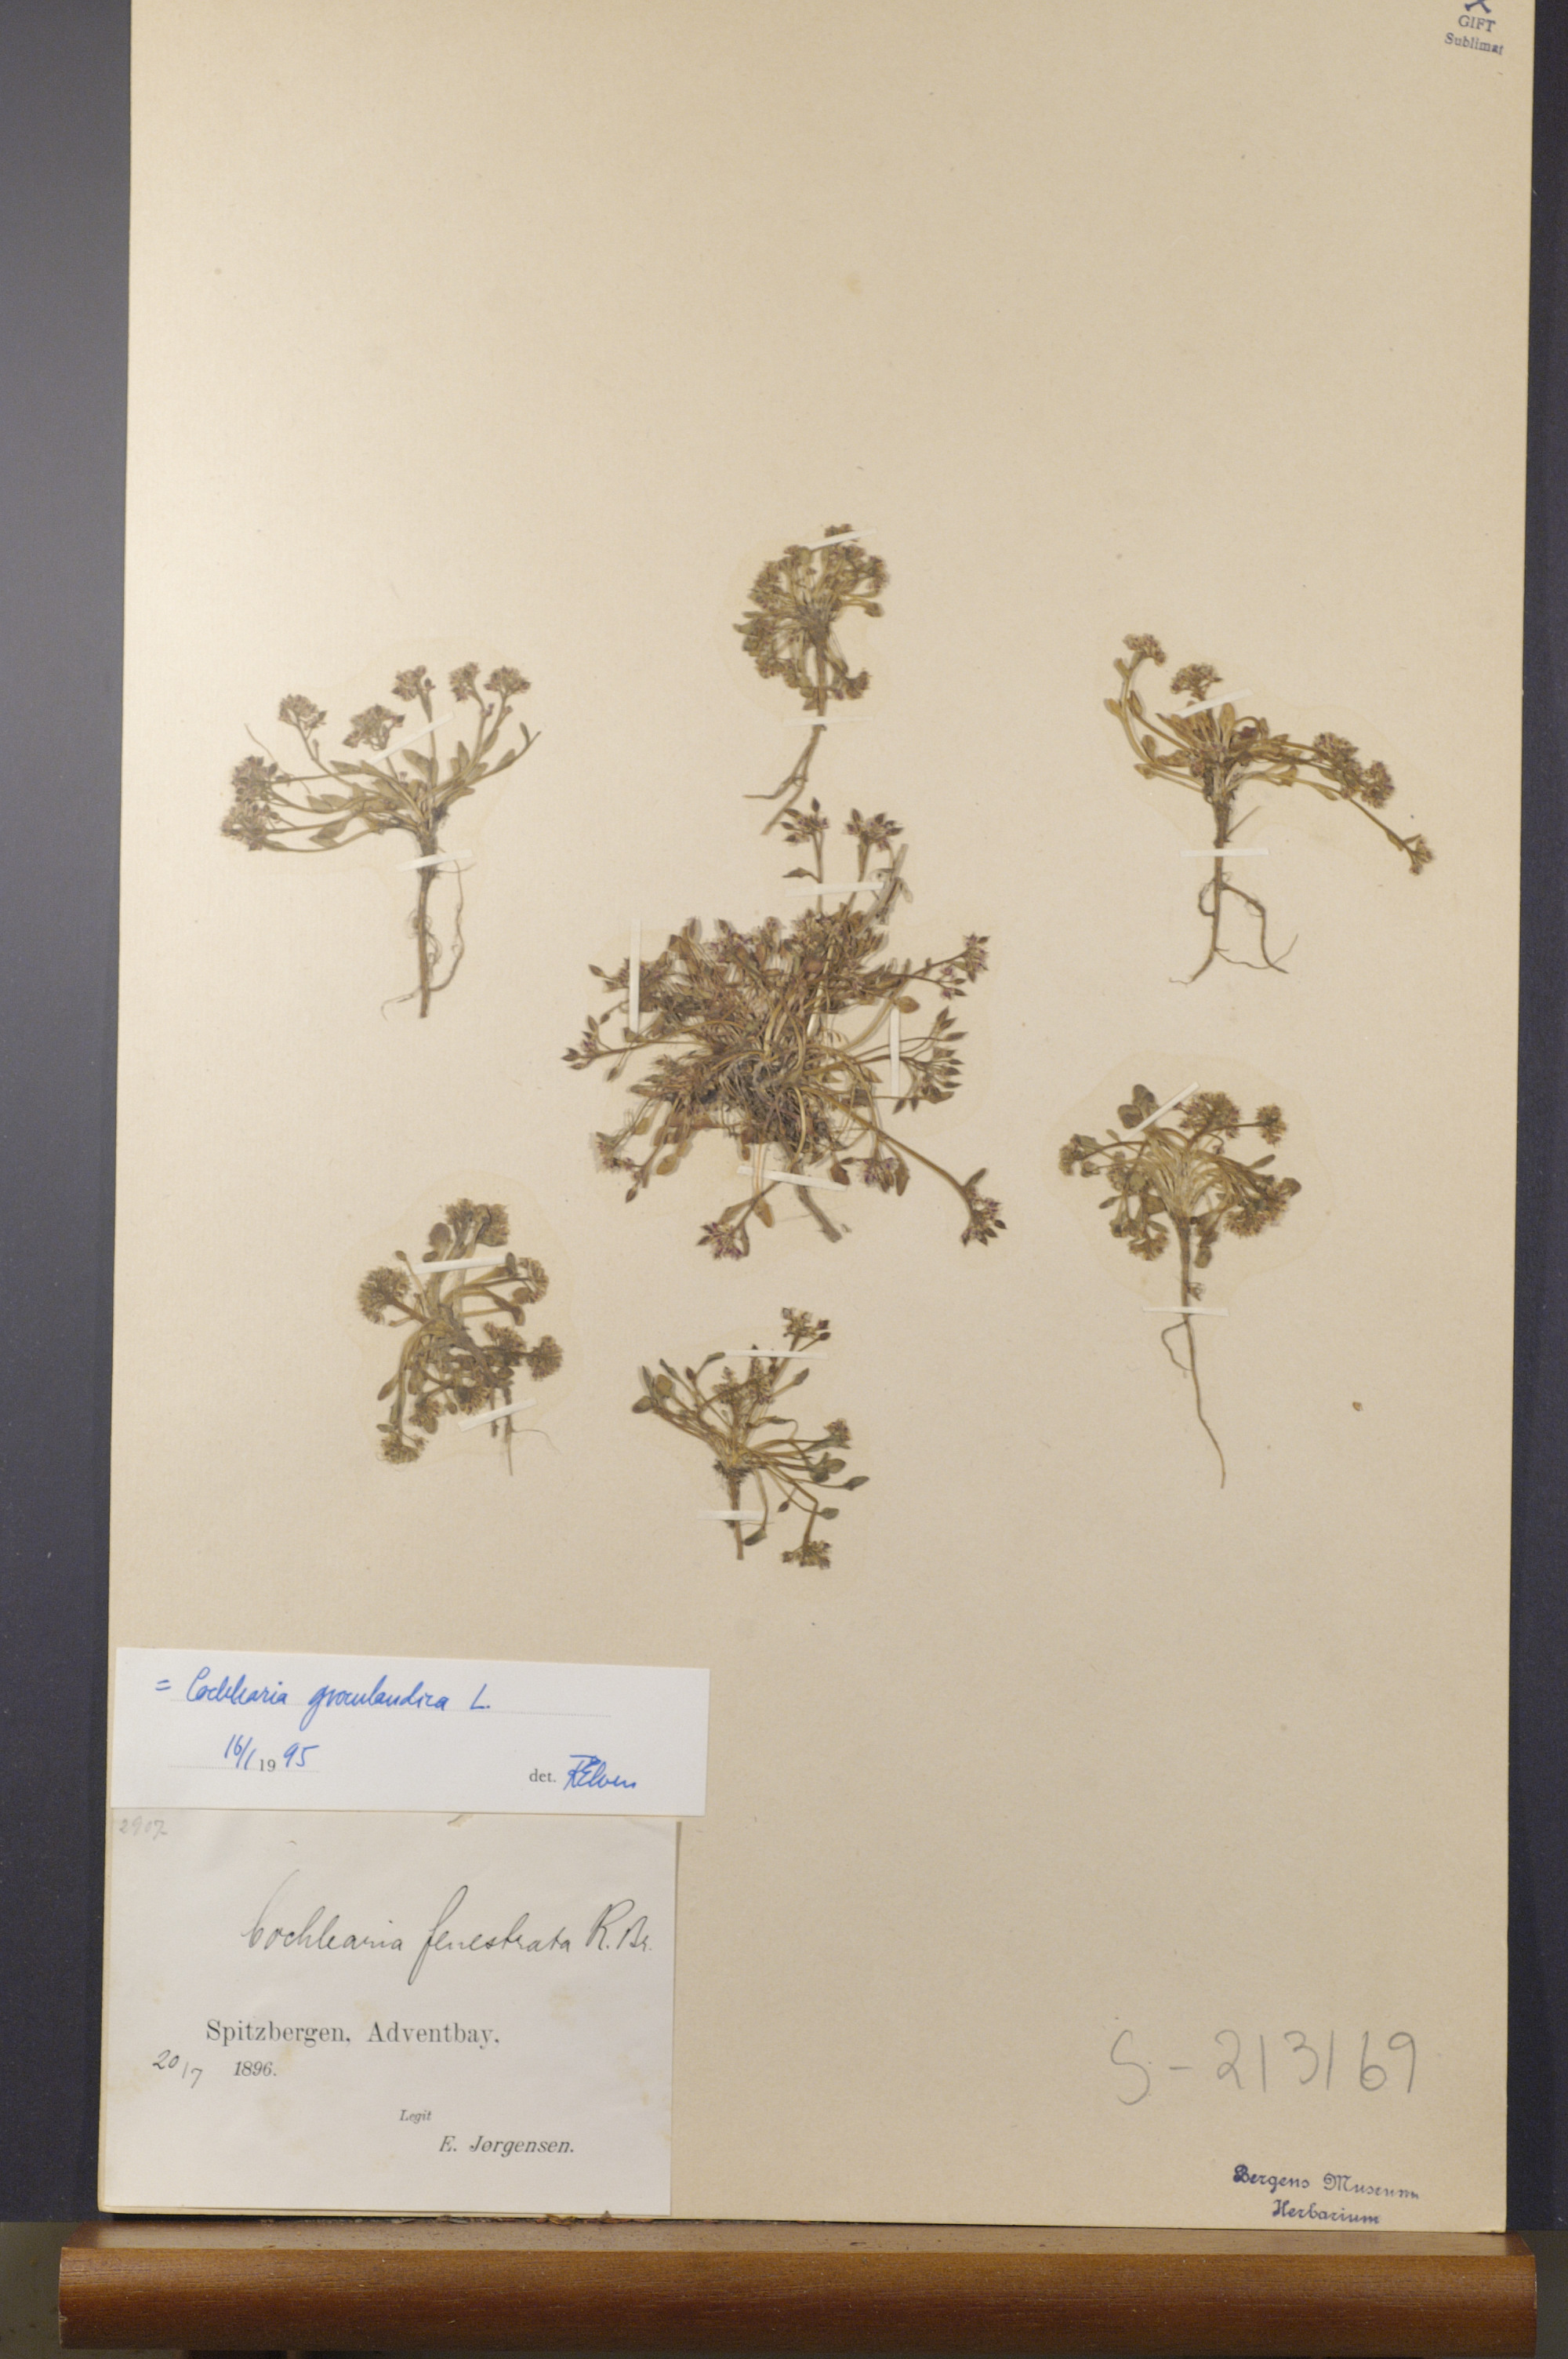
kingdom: Plantae
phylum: Tracheophyta
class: Magnoliopsida
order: Brassicales
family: Brassicaceae
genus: Cochlearia
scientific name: Cochlearia groenlandica
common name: Danish scurvygrass
